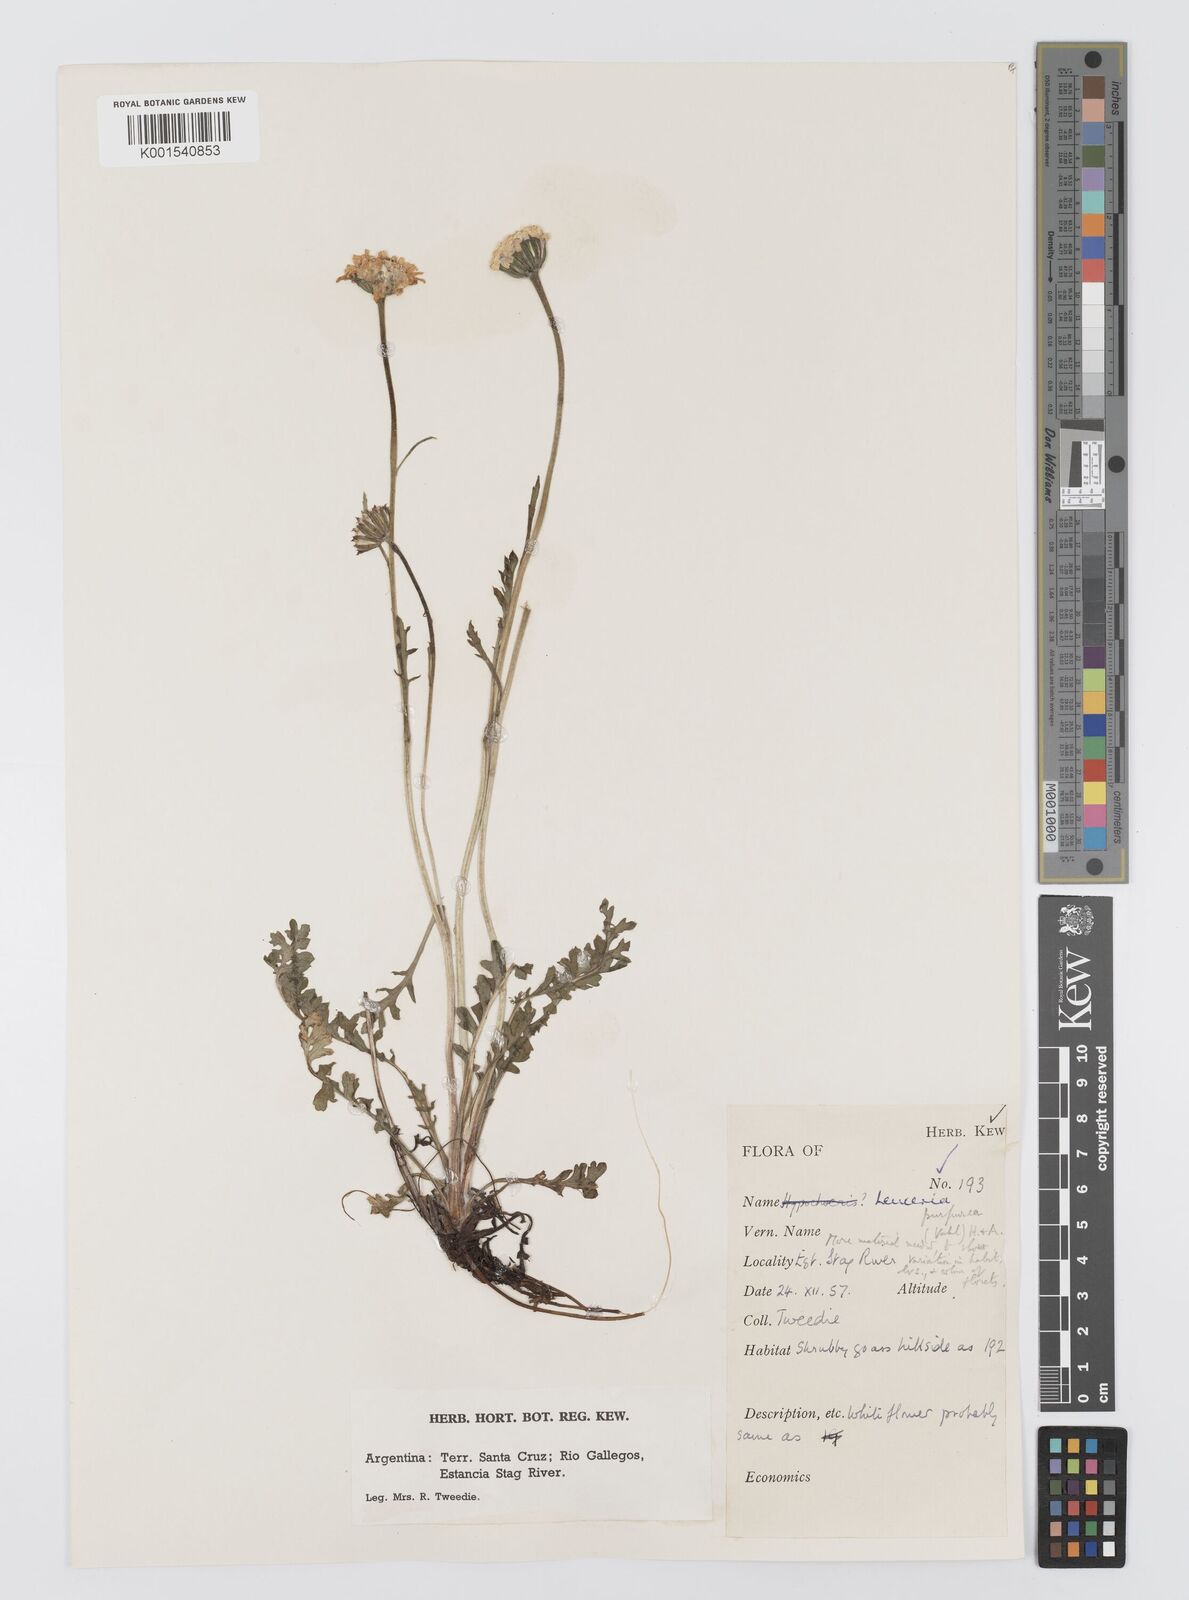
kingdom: Plantae
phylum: Tracheophyta
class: Magnoliopsida
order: Asterales
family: Asteraceae
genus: Leucheria
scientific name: Leucheria purpurea
